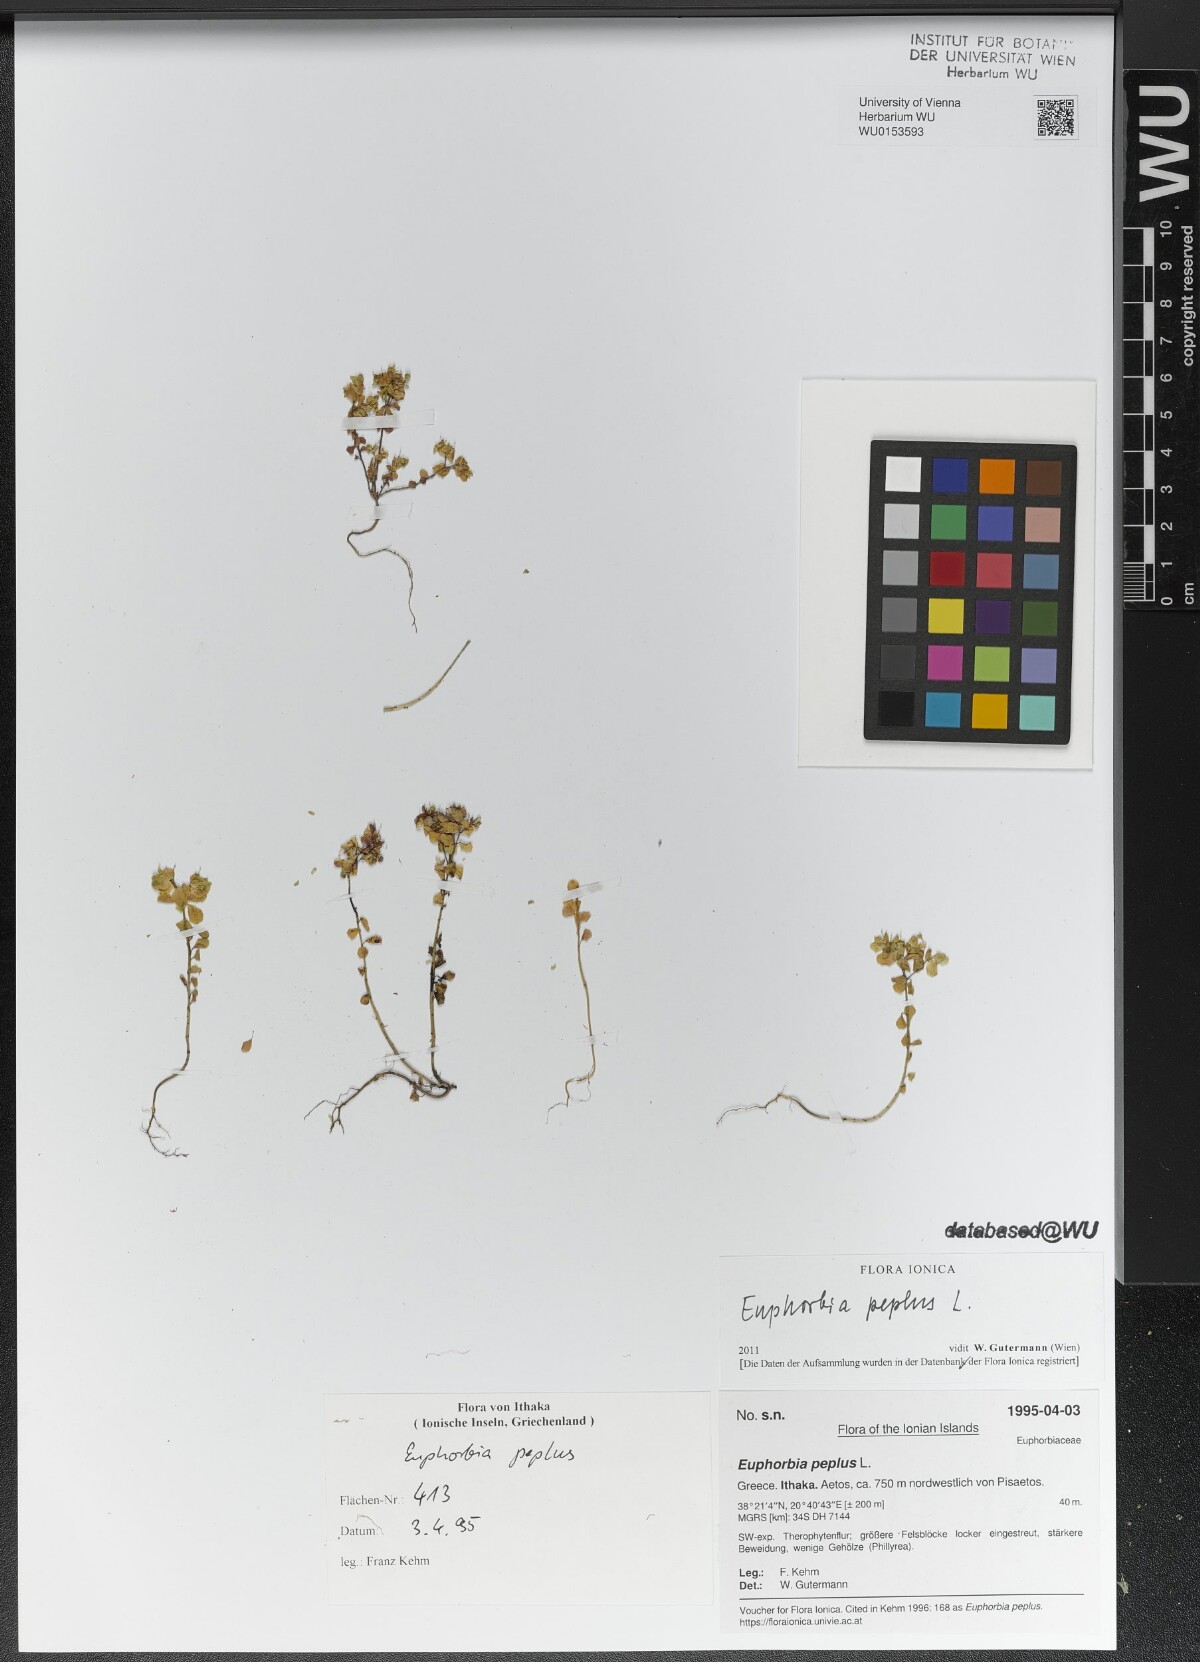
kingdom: Plantae
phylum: Tracheophyta
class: Magnoliopsida
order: Malpighiales
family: Euphorbiaceae
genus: Euphorbia
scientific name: Euphorbia peplus
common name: Petty spurge
